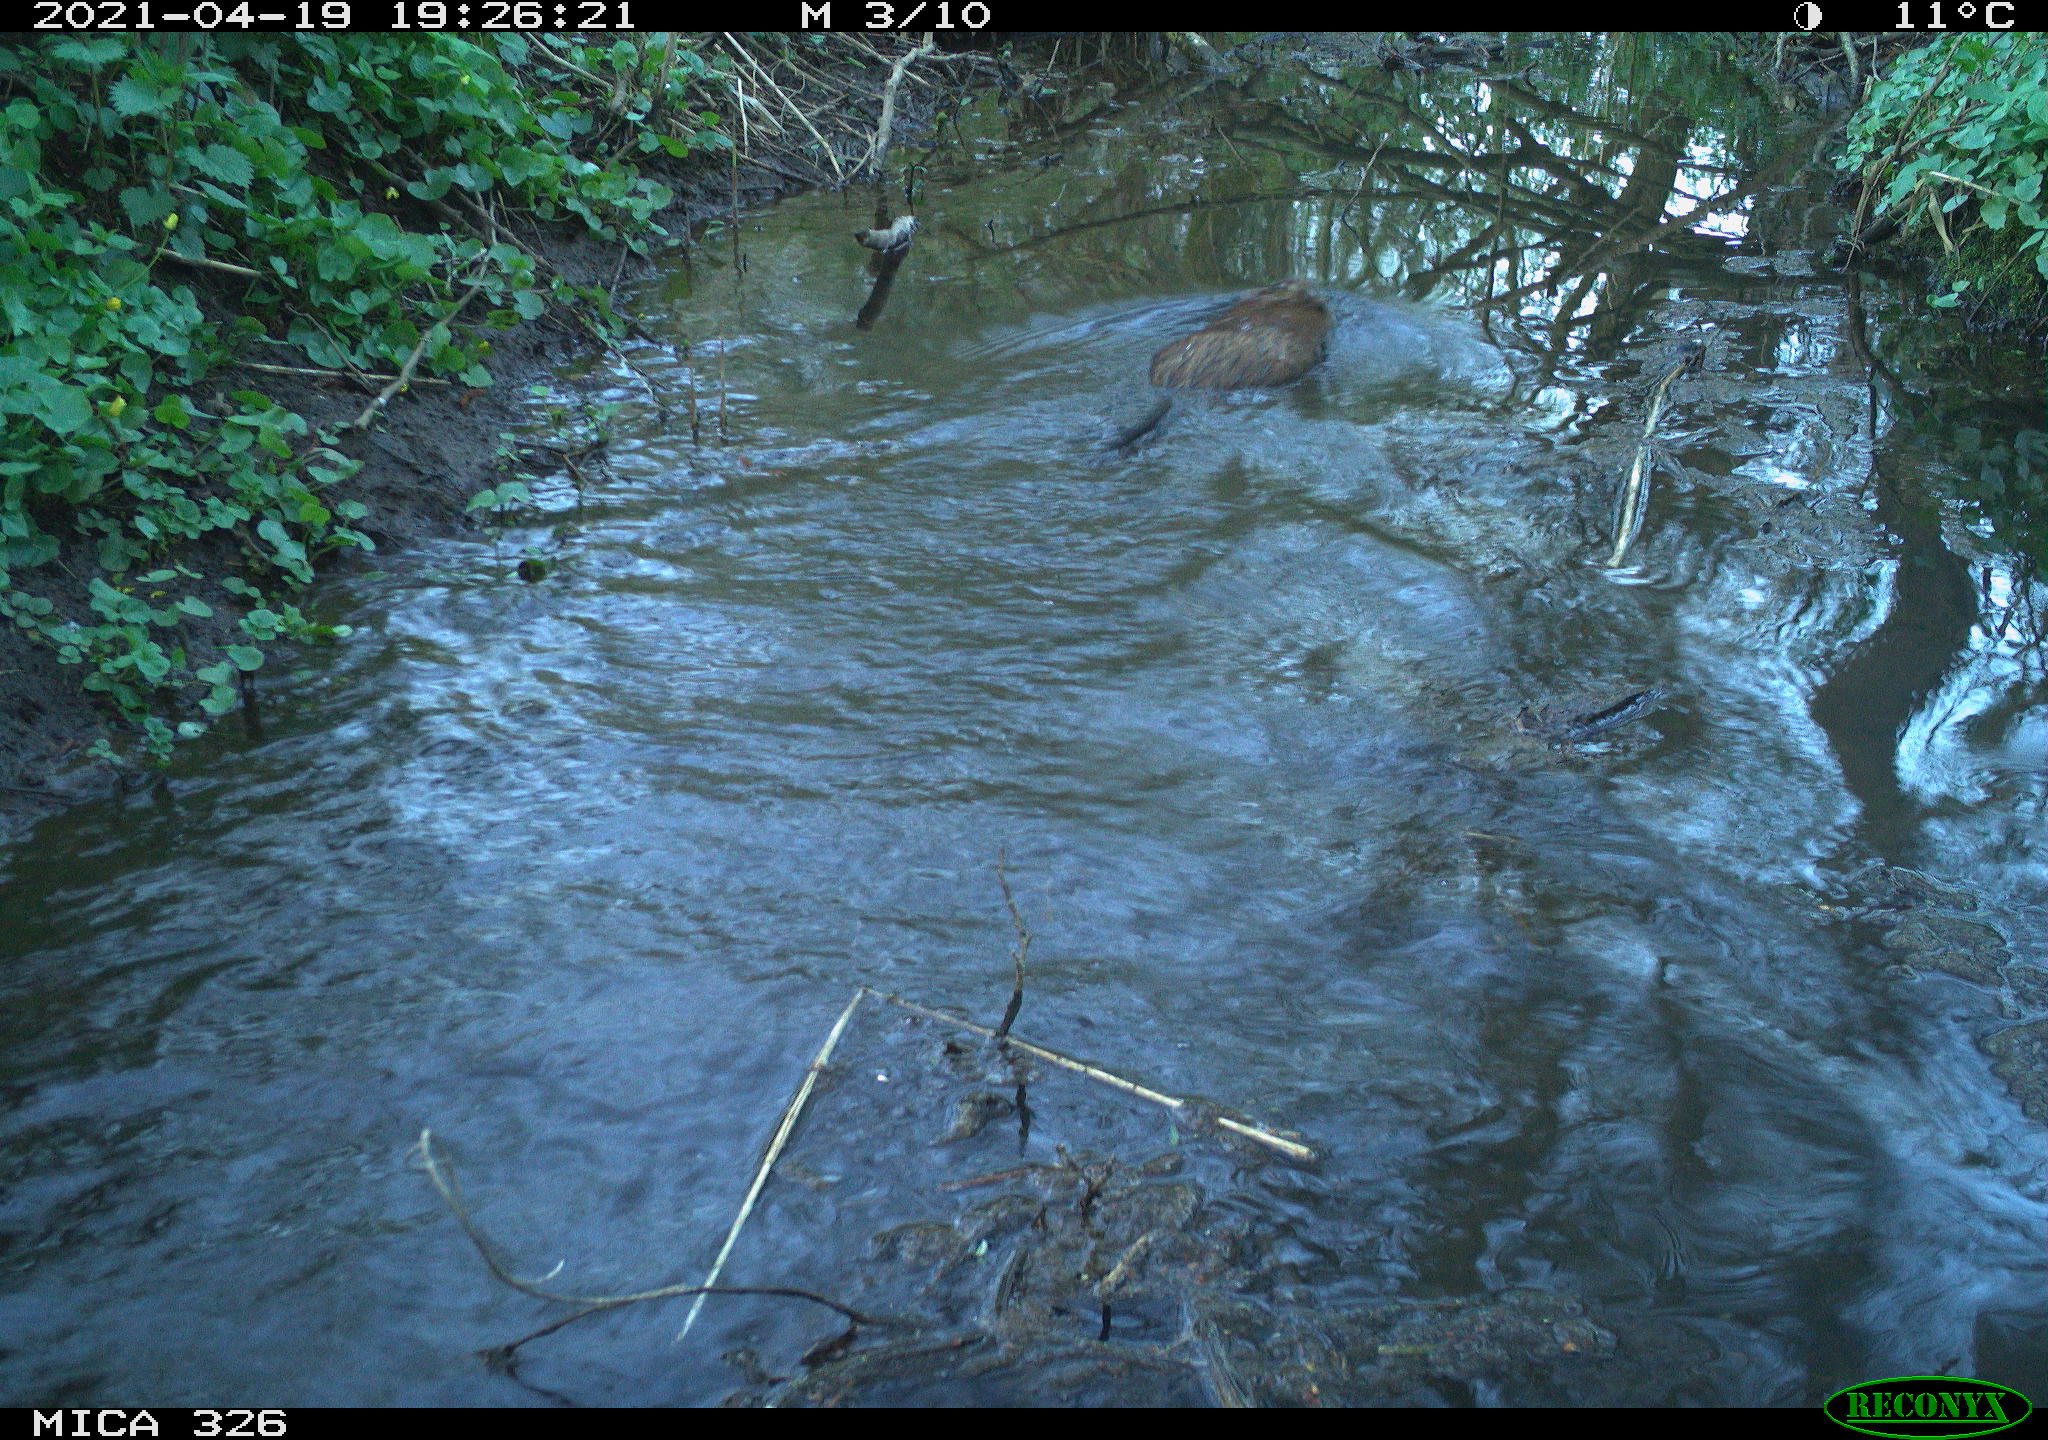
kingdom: Animalia
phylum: Chordata
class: Mammalia
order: Rodentia
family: Cricetidae
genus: Ondatra
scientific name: Ondatra zibethicus
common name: Muskrat
